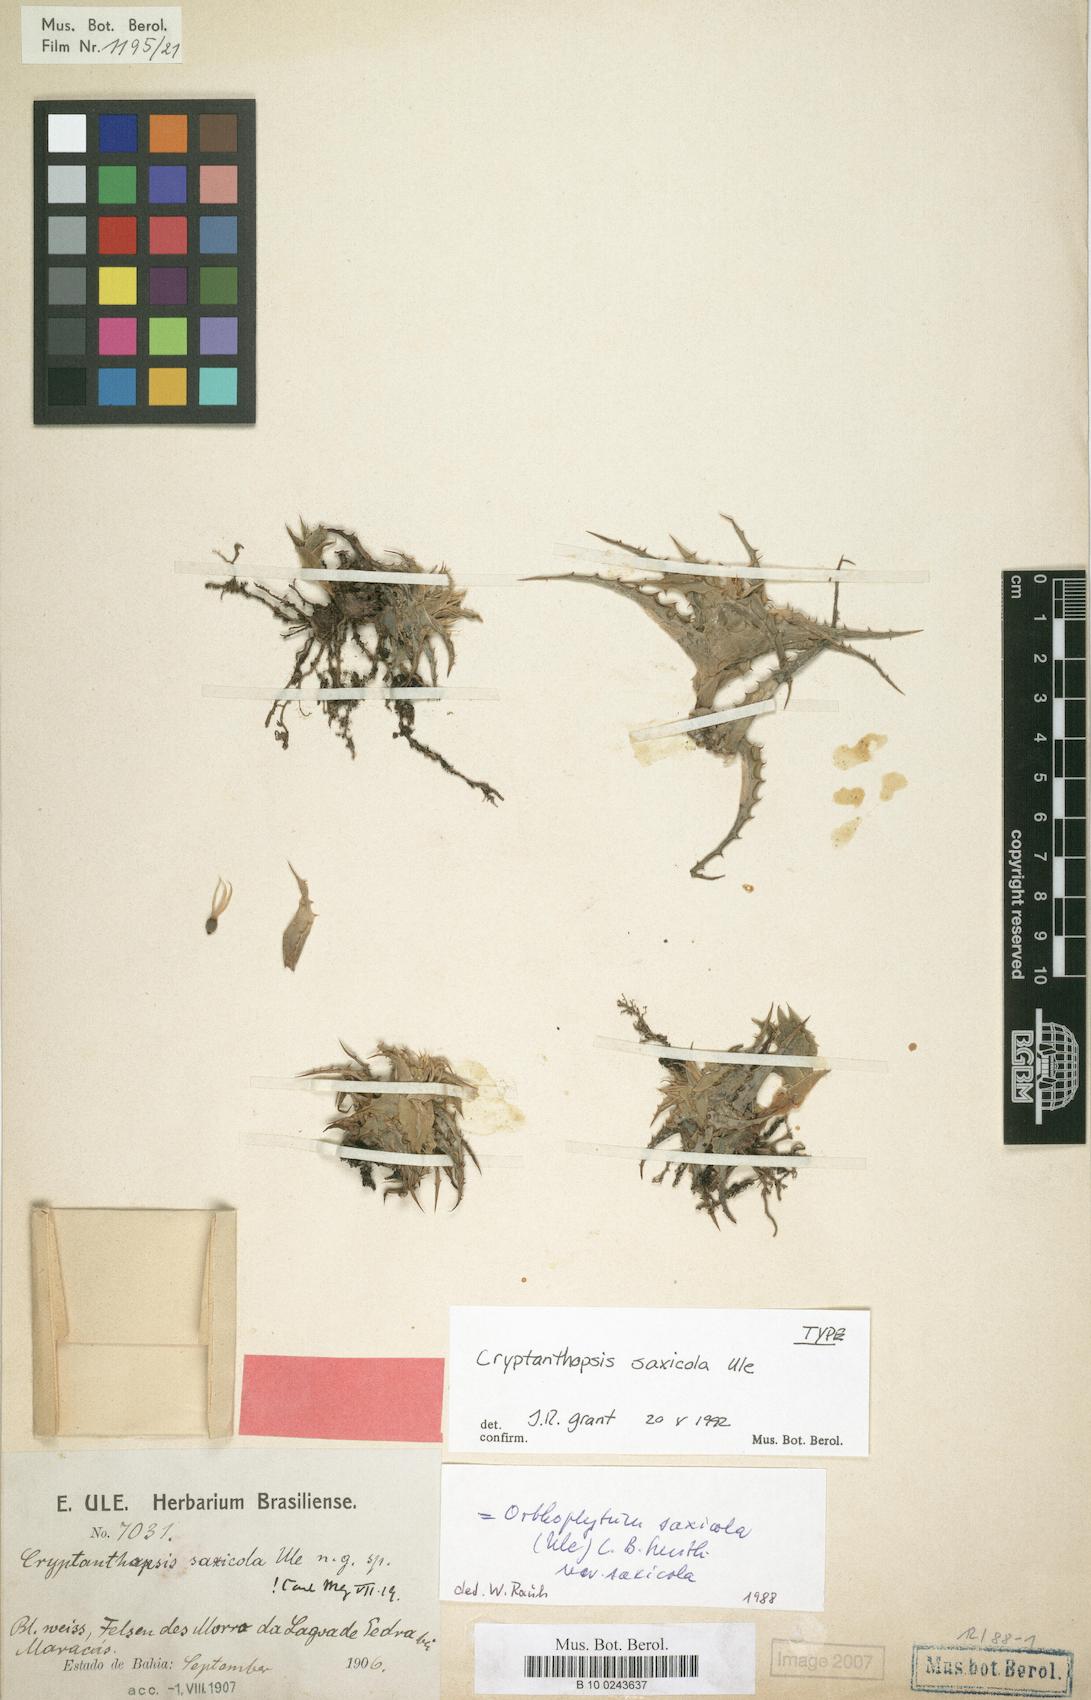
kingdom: Plantae
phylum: Tracheophyta
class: Liliopsida
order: Poales
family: Bromeliaceae
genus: Orthophytum
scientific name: Orthophytum saxicola
